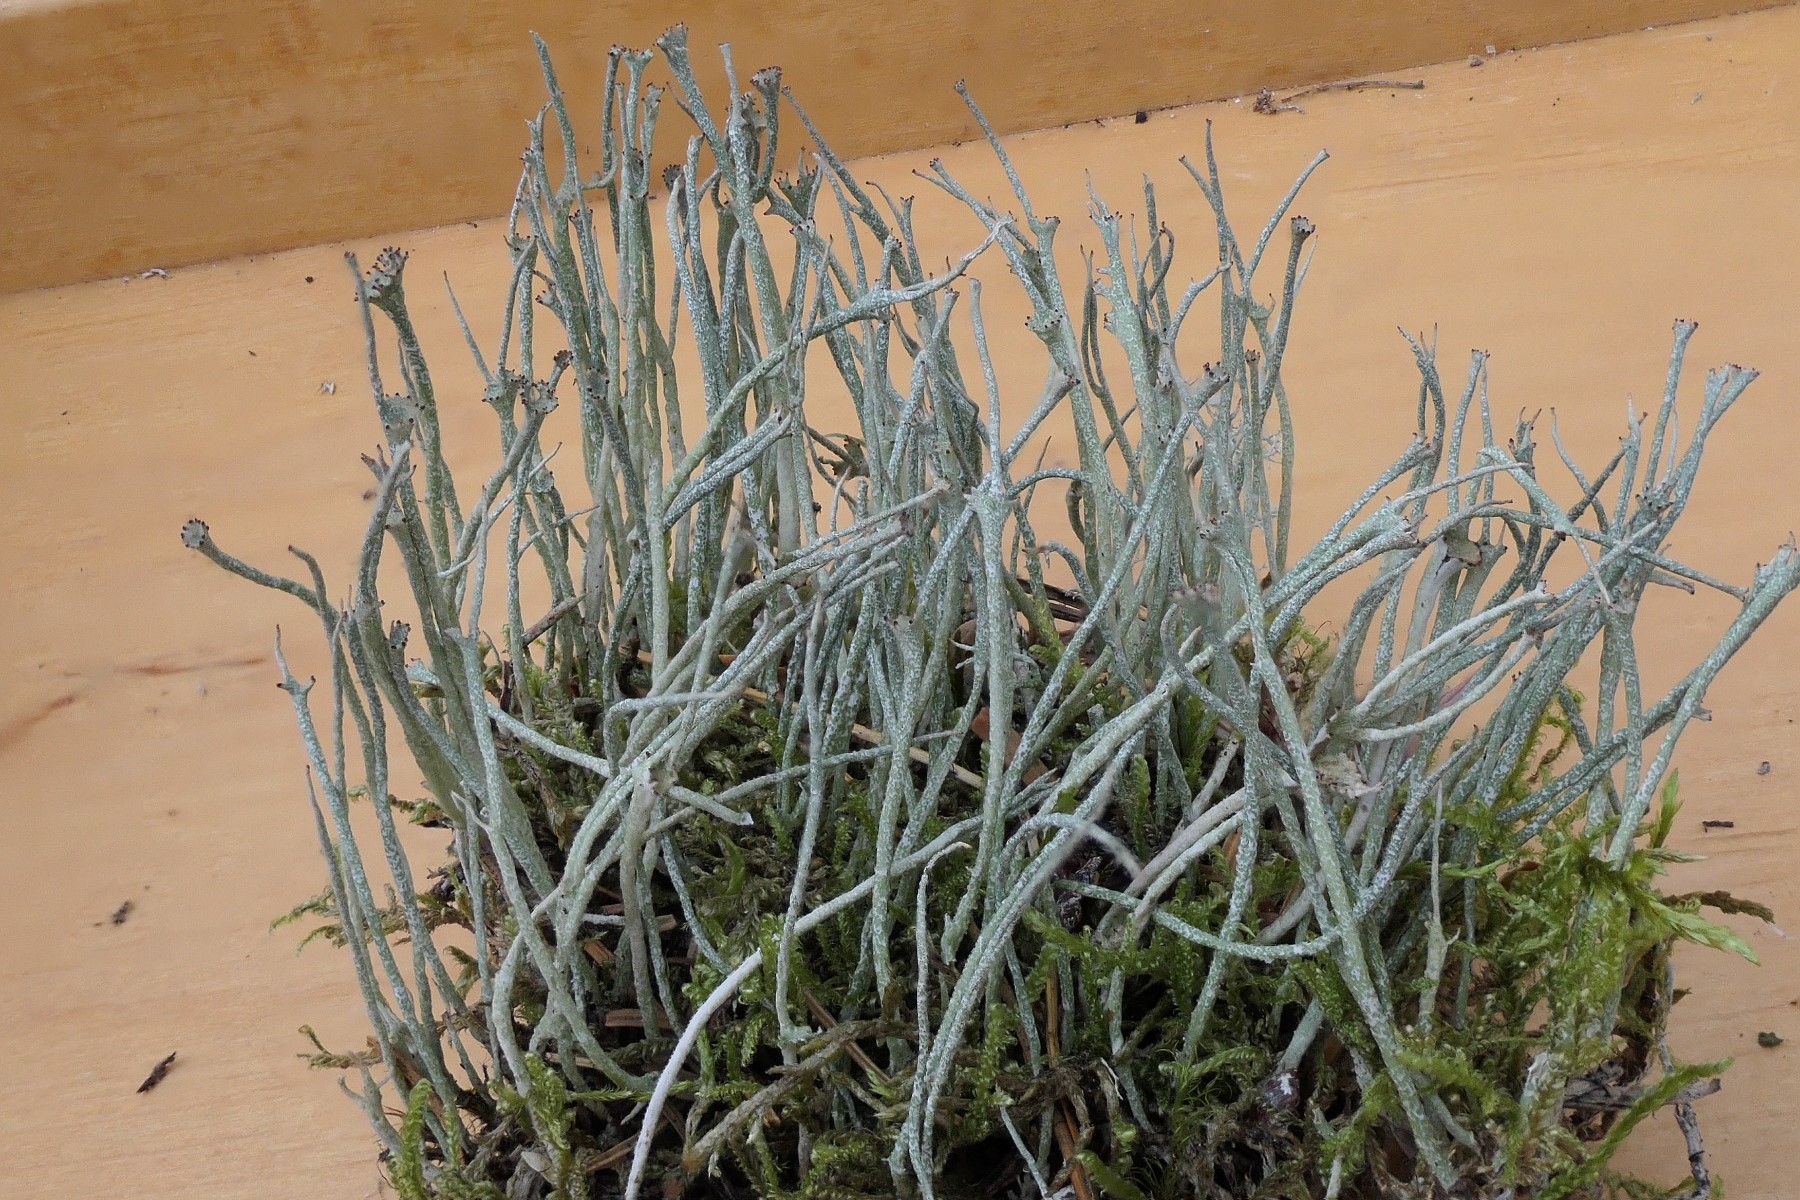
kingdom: Fungi
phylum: Ascomycota
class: Lecanoromycetes
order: Lecanorales
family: Cladoniaceae
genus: Cladonia
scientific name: Cladonia gracilis
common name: slank bægerlav
